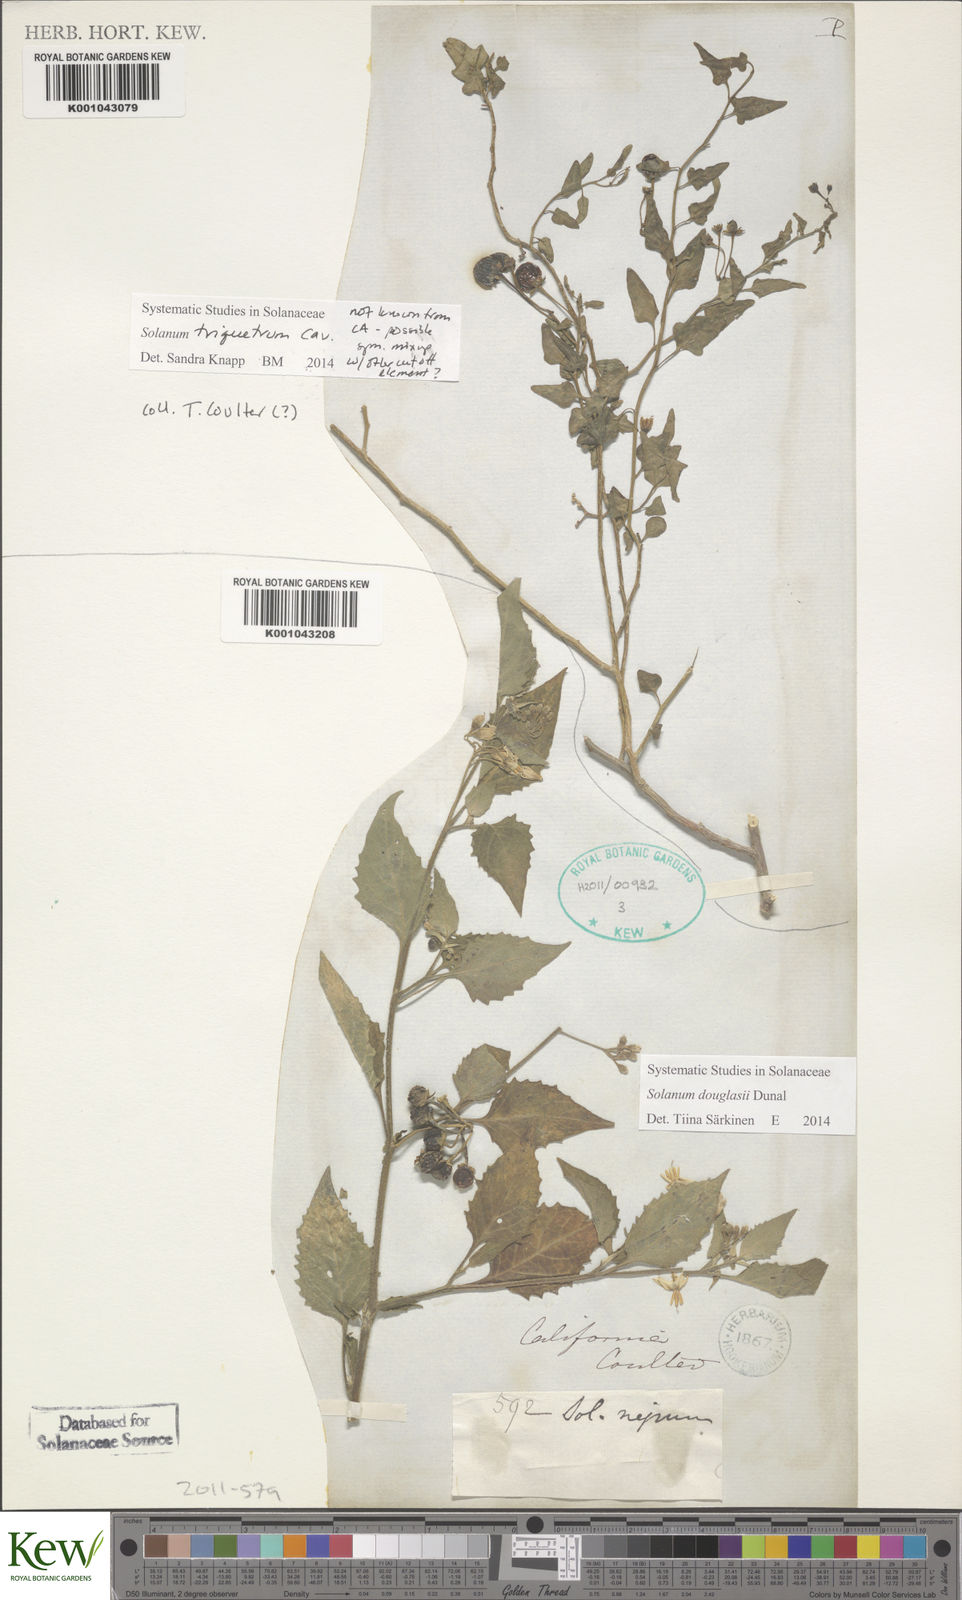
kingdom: Plantae
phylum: Tracheophyta
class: Magnoliopsida
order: Solanales
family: Solanaceae
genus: Solanum
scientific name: Solanum douglasii
